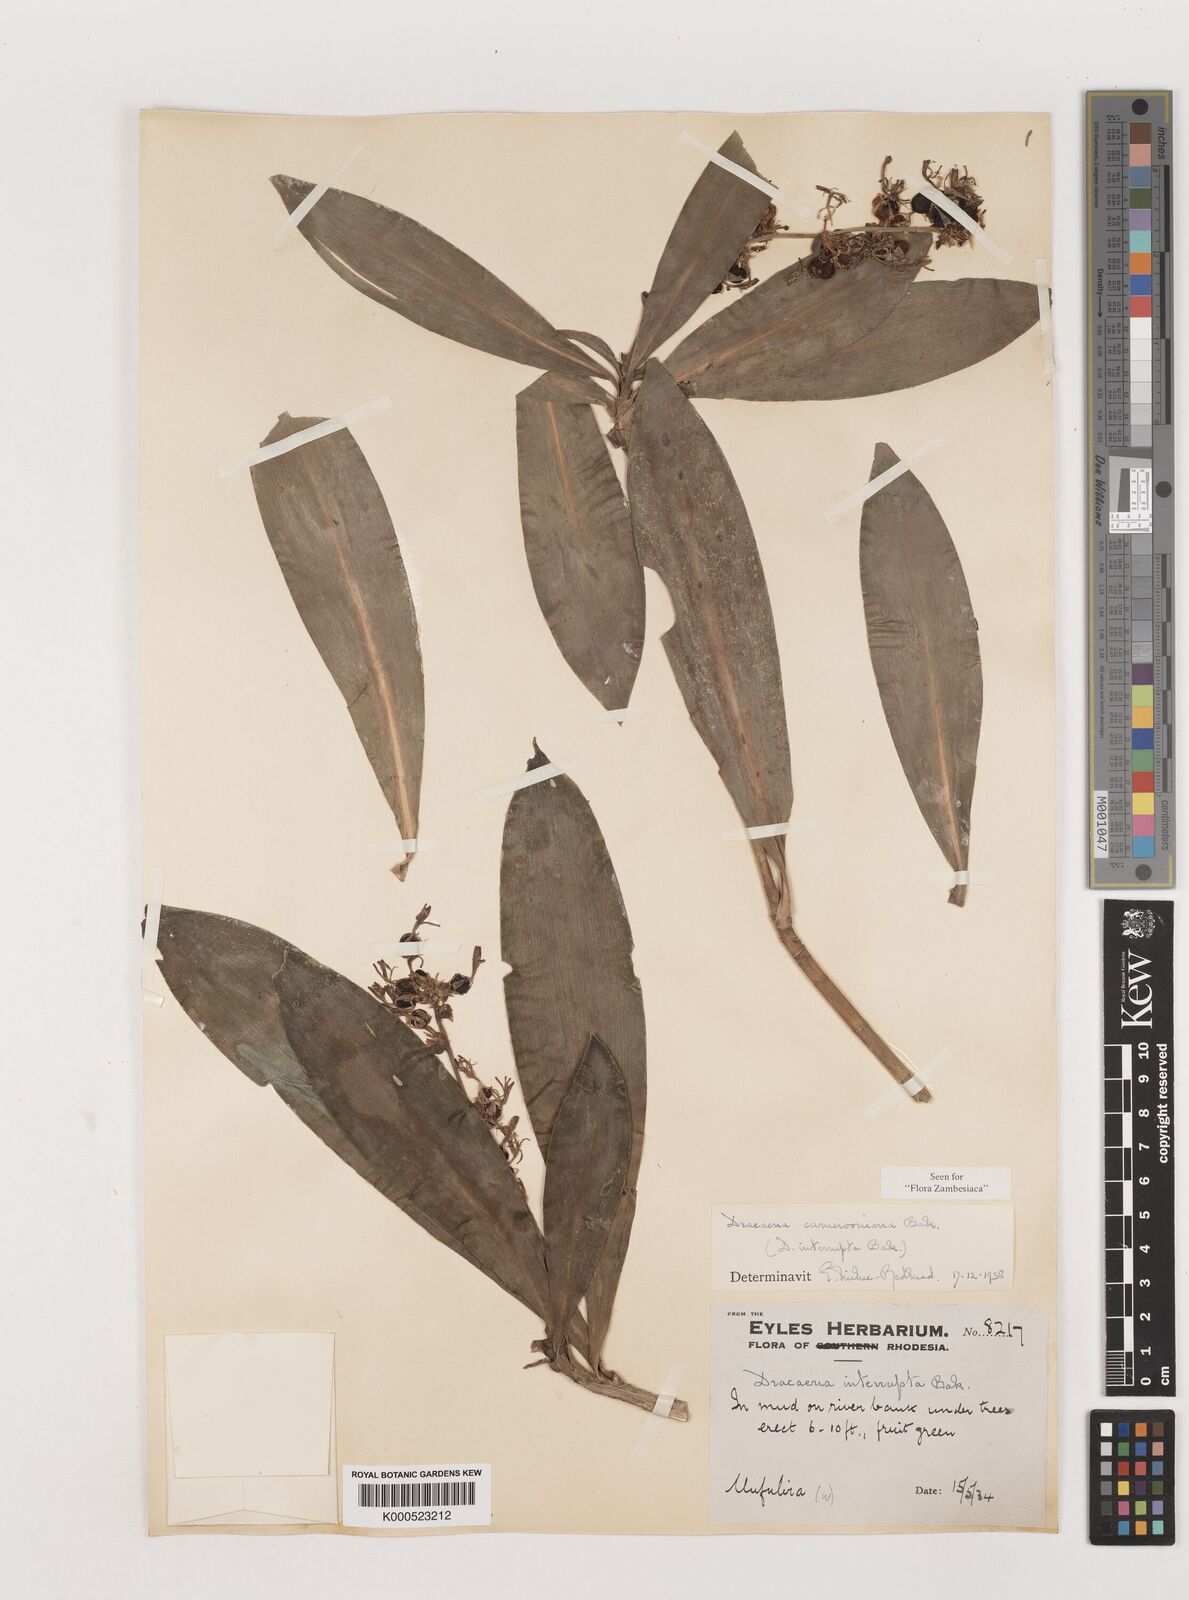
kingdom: Plantae
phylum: Tracheophyta
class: Liliopsida
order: Asparagales
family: Asparagaceae
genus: Dracaena
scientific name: Dracaena camerooniana
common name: Dragon tree
